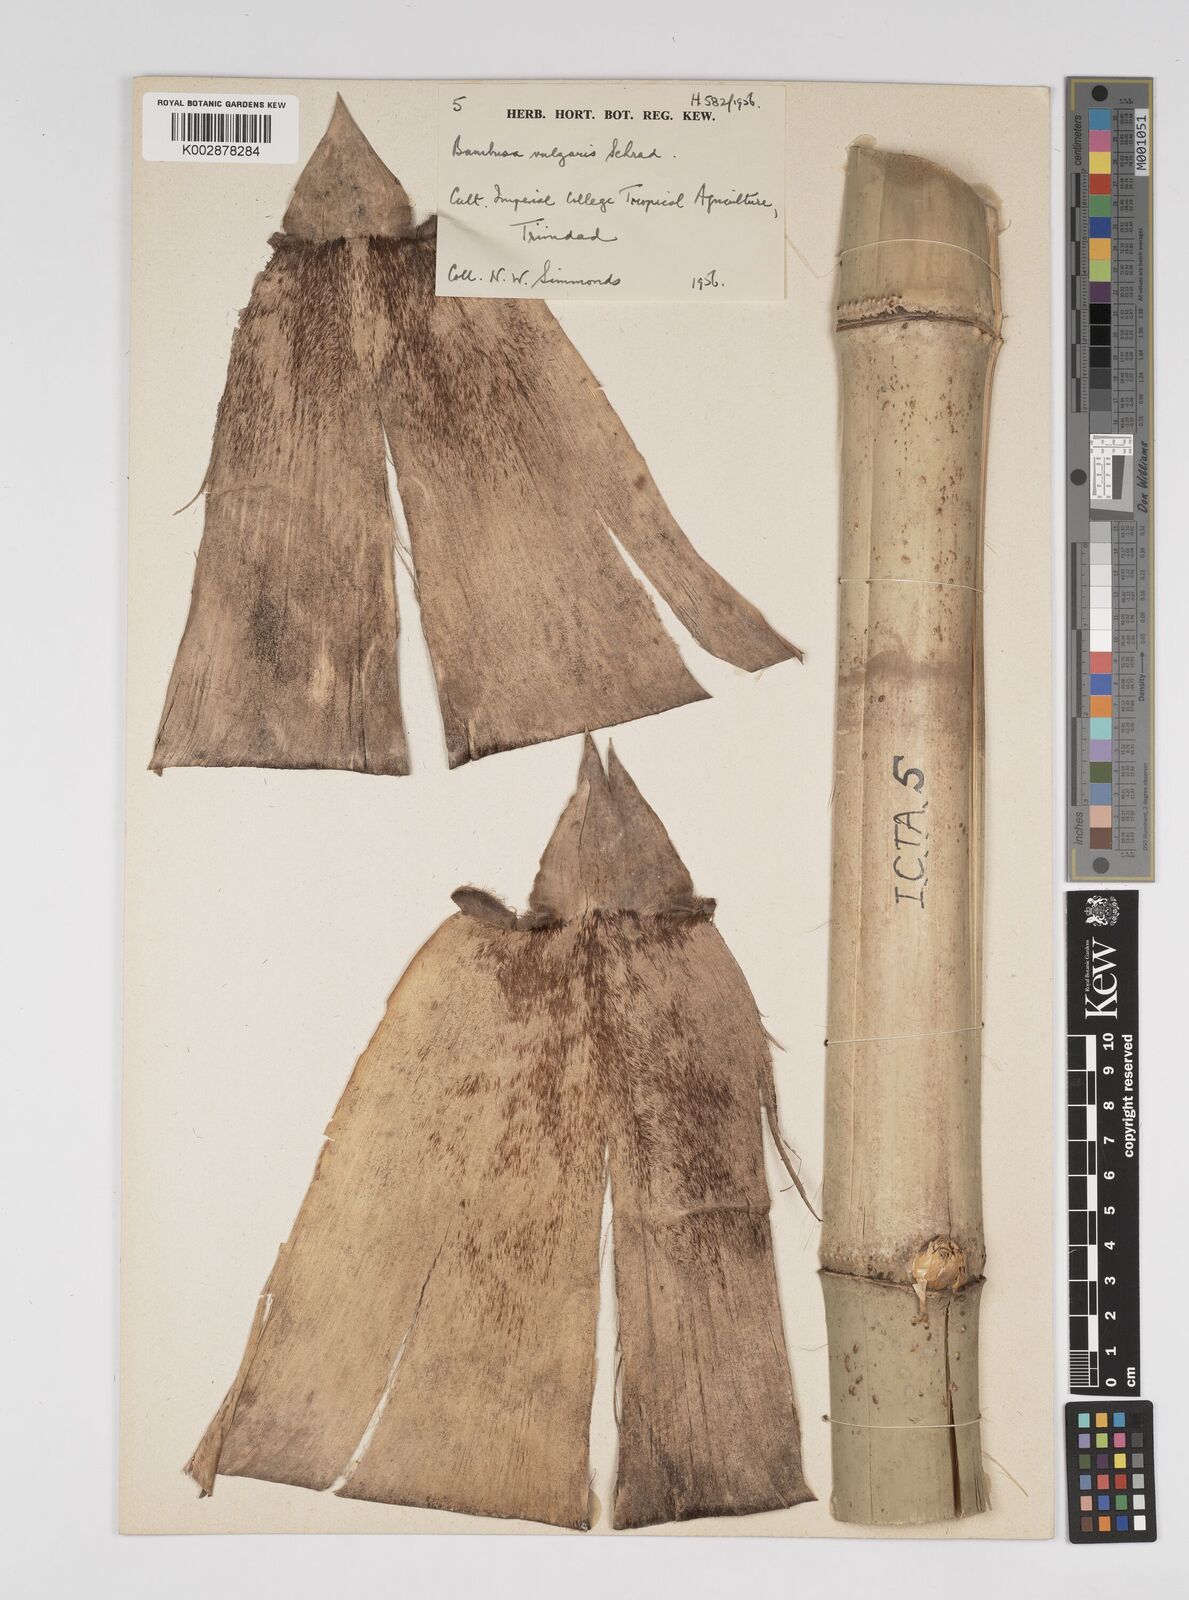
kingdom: Plantae
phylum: Tracheophyta
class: Liliopsida
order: Poales
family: Poaceae
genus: Bambusa
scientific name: Bambusa vulgaris
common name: Common bamboo
